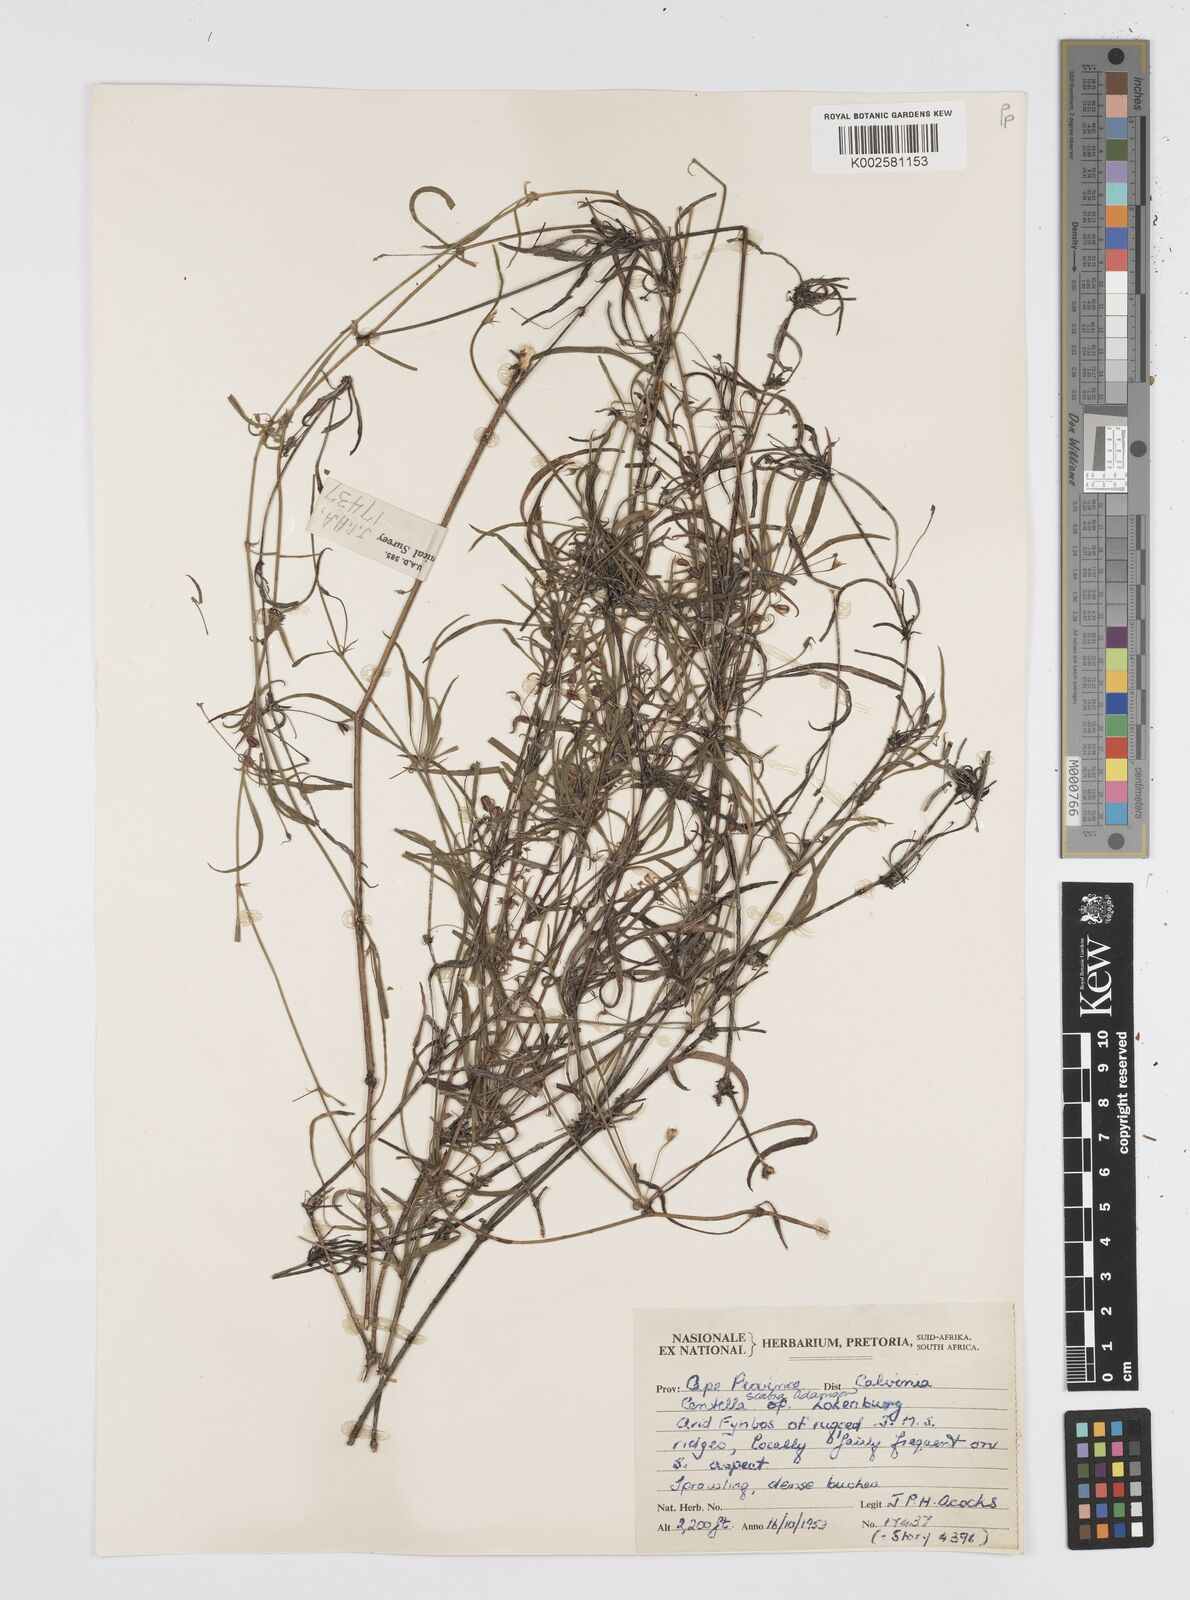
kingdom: Plantae
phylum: Tracheophyta
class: Magnoliopsida
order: Apiales
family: Apiaceae
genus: Centella
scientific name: Centella scabra
